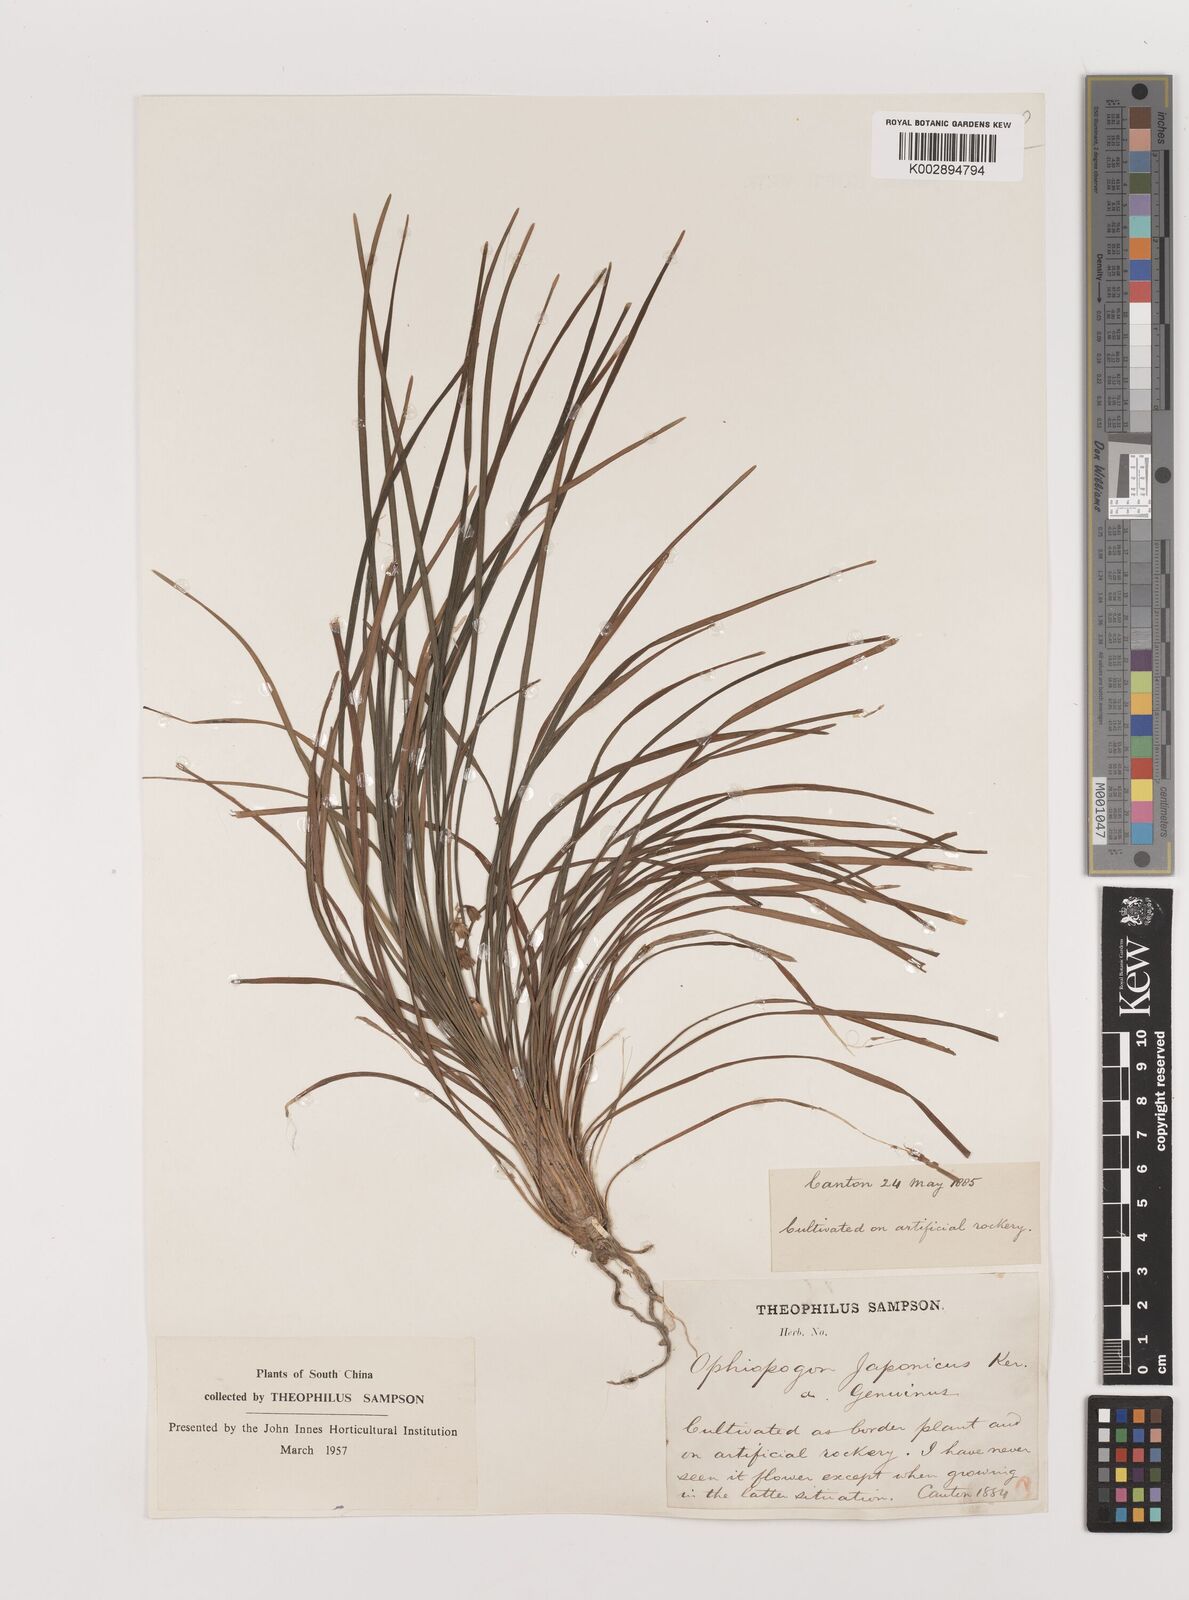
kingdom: Plantae
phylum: Tracheophyta
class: Liliopsida
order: Asparagales
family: Asparagaceae
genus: Ophiopogon
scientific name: Ophiopogon japonicus
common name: Dwarf lilyturf
